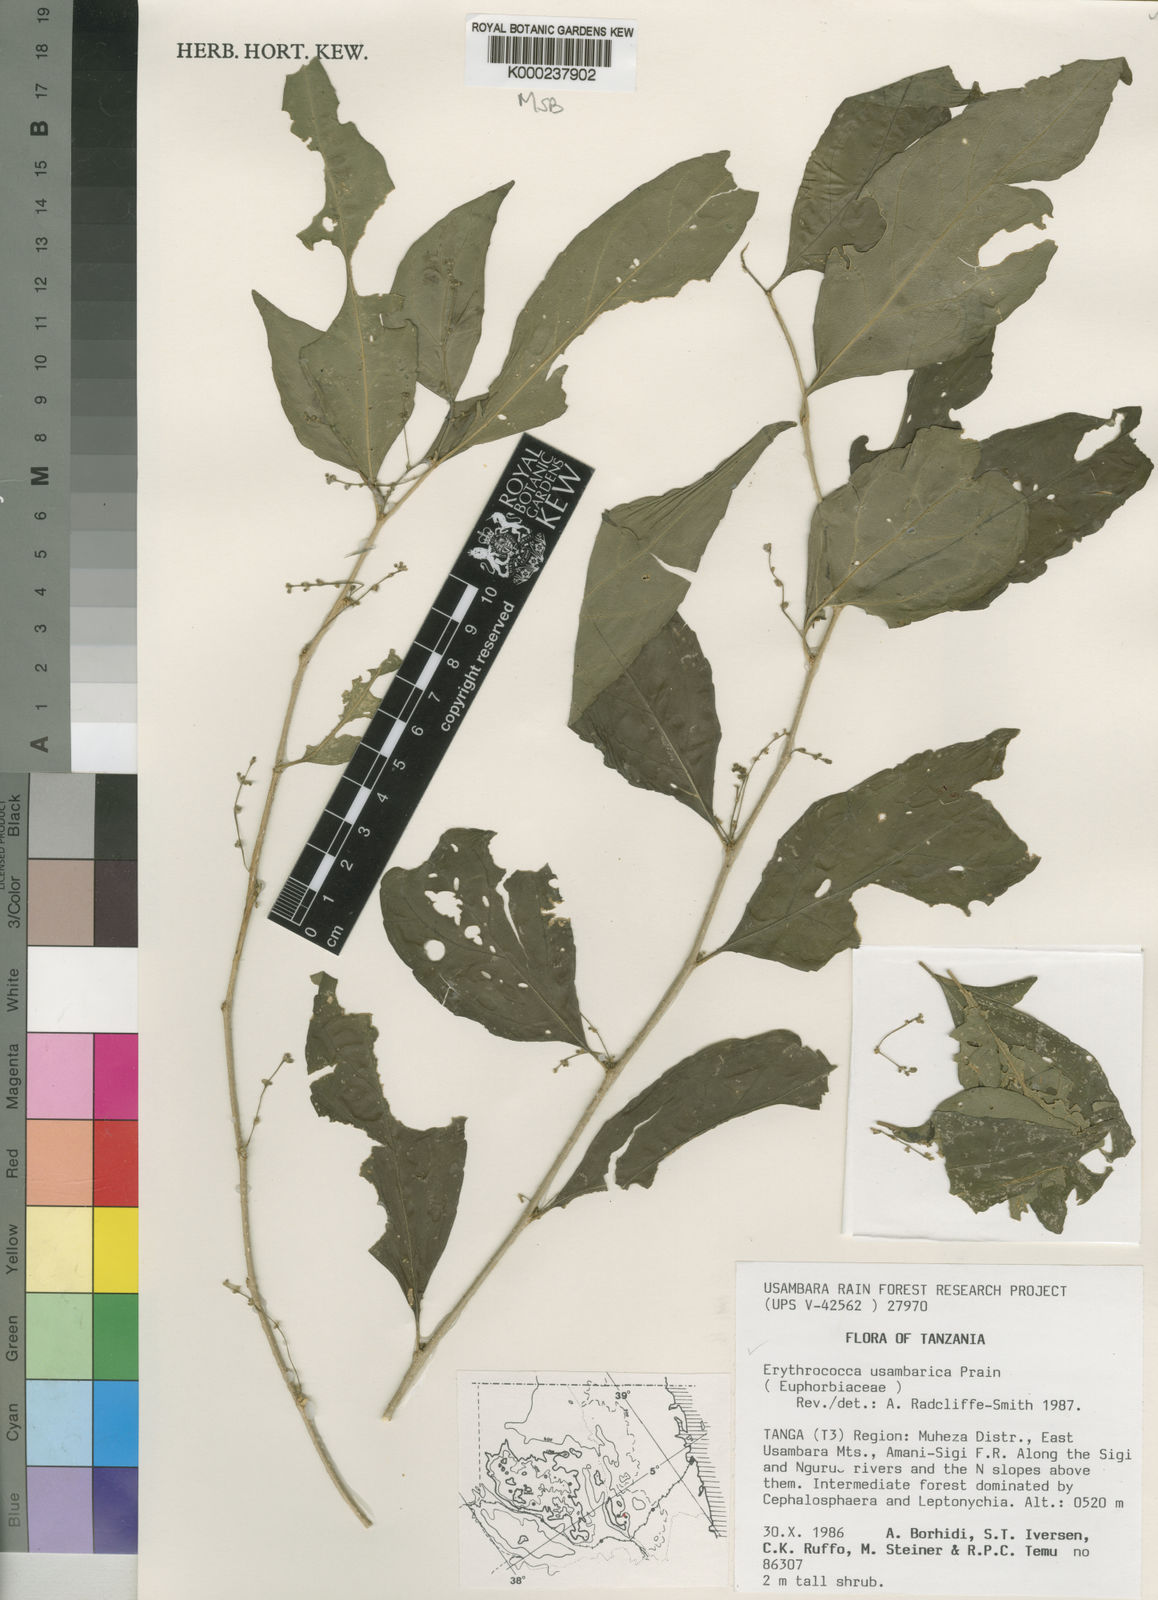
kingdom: Plantae
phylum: Tracheophyta
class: Magnoliopsida
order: Malpighiales
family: Euphorbiaceae
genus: Erythrococca
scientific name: Erythrococca usambarica
